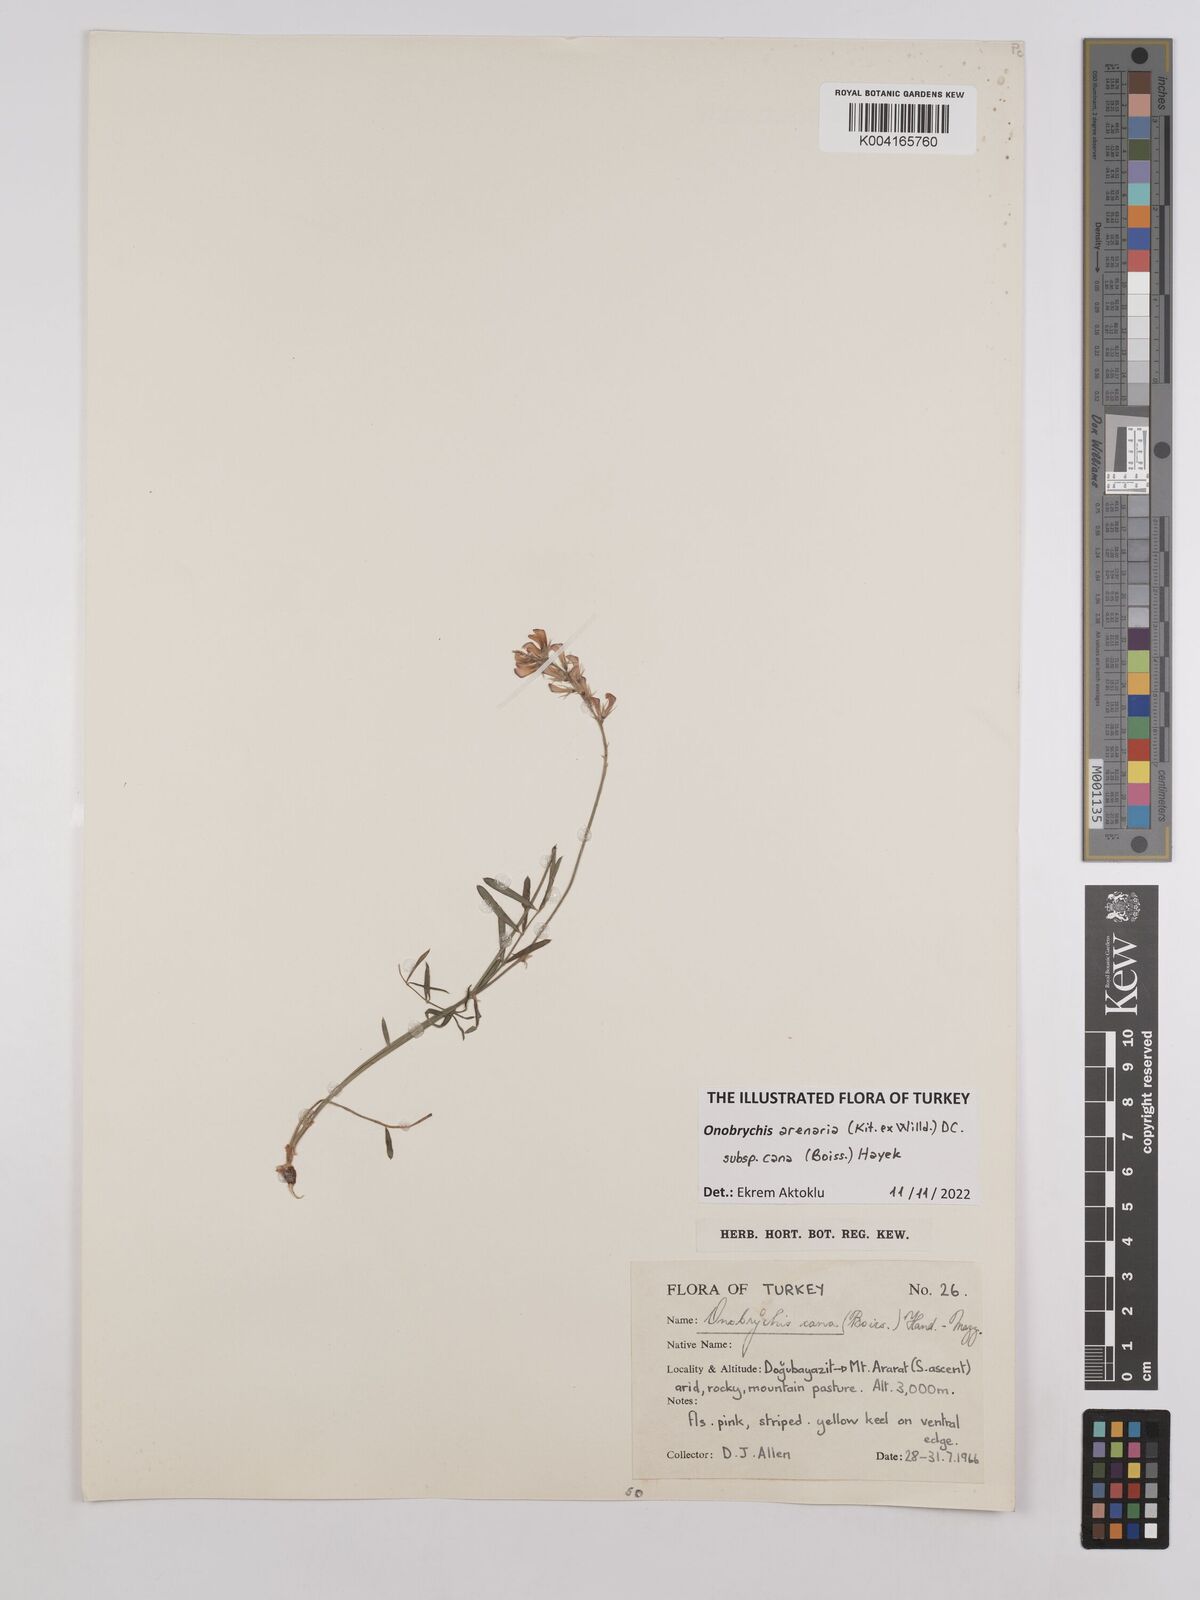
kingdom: Plantae
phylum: Tracheophyta
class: Magnoliopsida
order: Fabales
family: Fabaceae
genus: Onobrychis
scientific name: Onobrychis arenaria
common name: Sand esparcet
